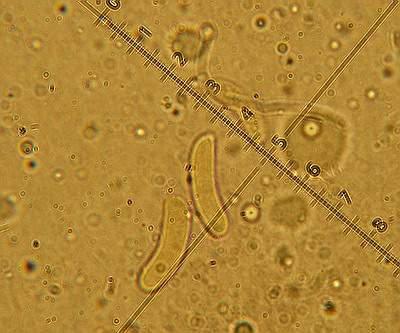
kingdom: Fungi
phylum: Basidiomycota
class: Agaricomycetes
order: Corticiales
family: Vuilleminiaceae
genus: Vuilleminia
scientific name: Vuilleminia comedens
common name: almindelig barksprænger
